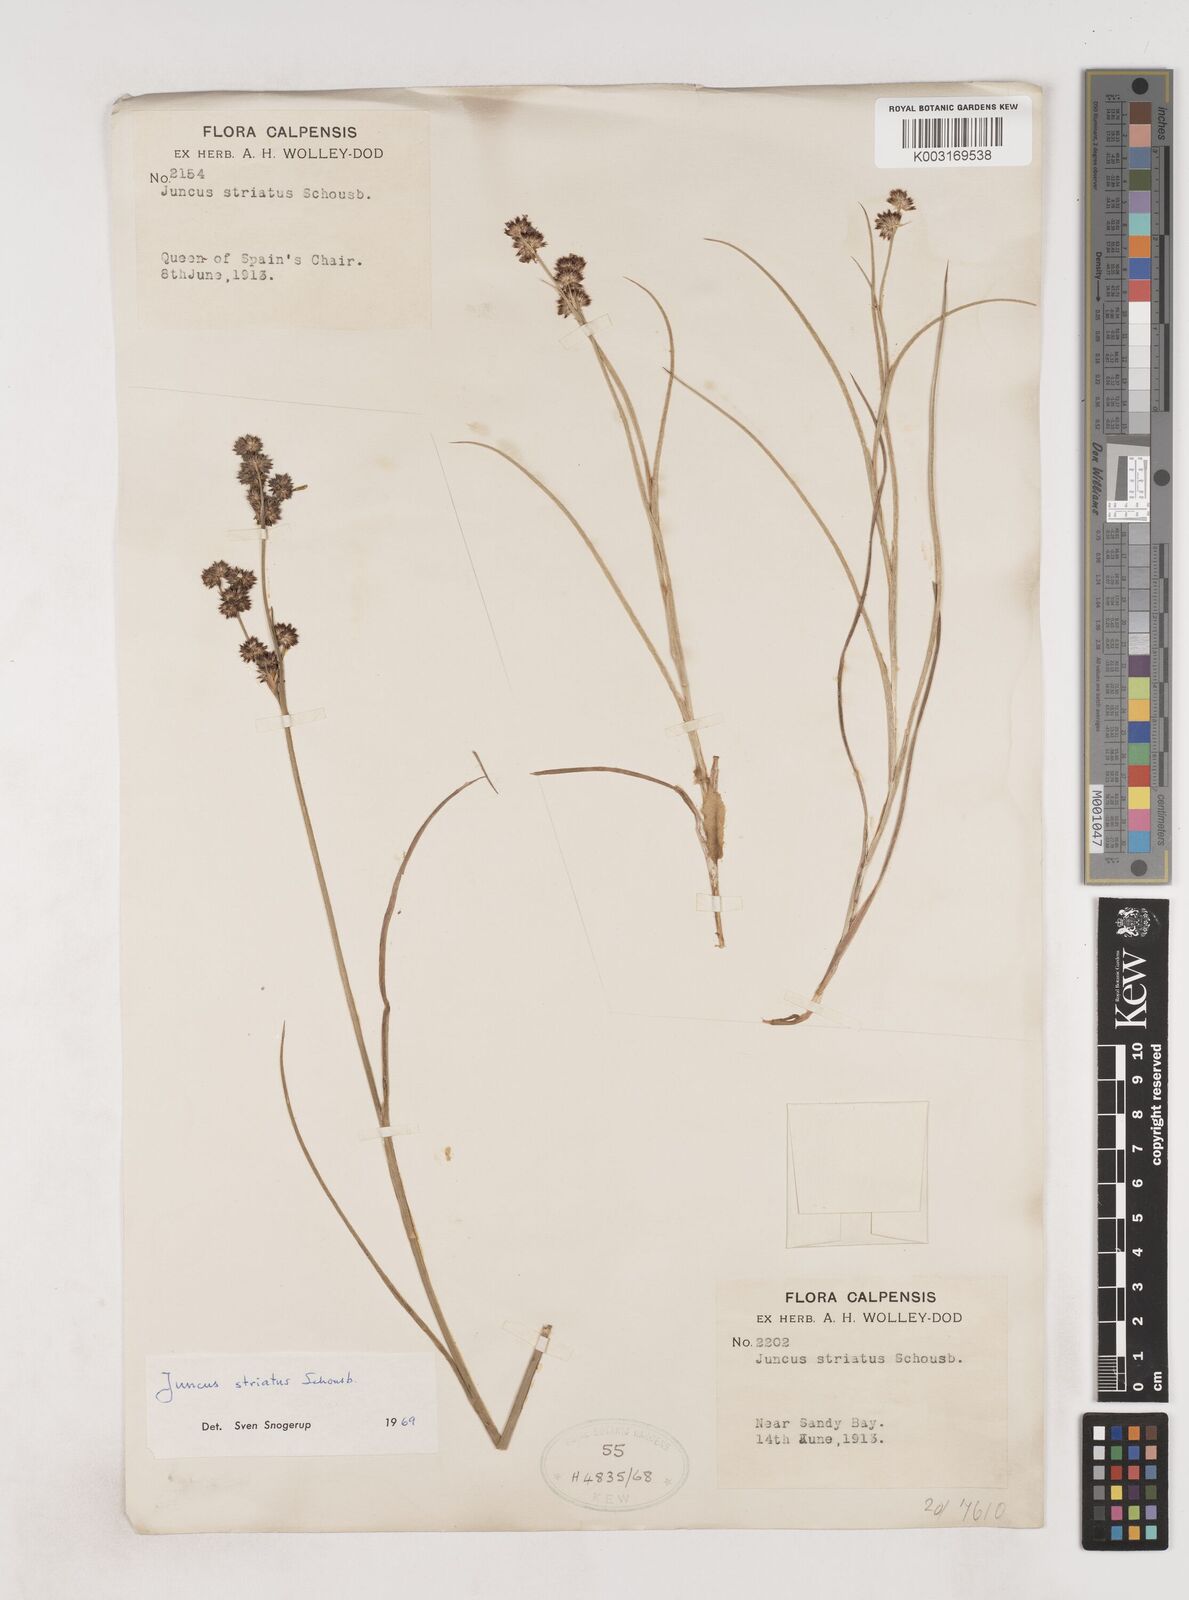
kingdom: Plantae
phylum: Tracheophyta
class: Liliopsida
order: Poales
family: Juncaceae
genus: Juncus
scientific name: Juncus striatus
